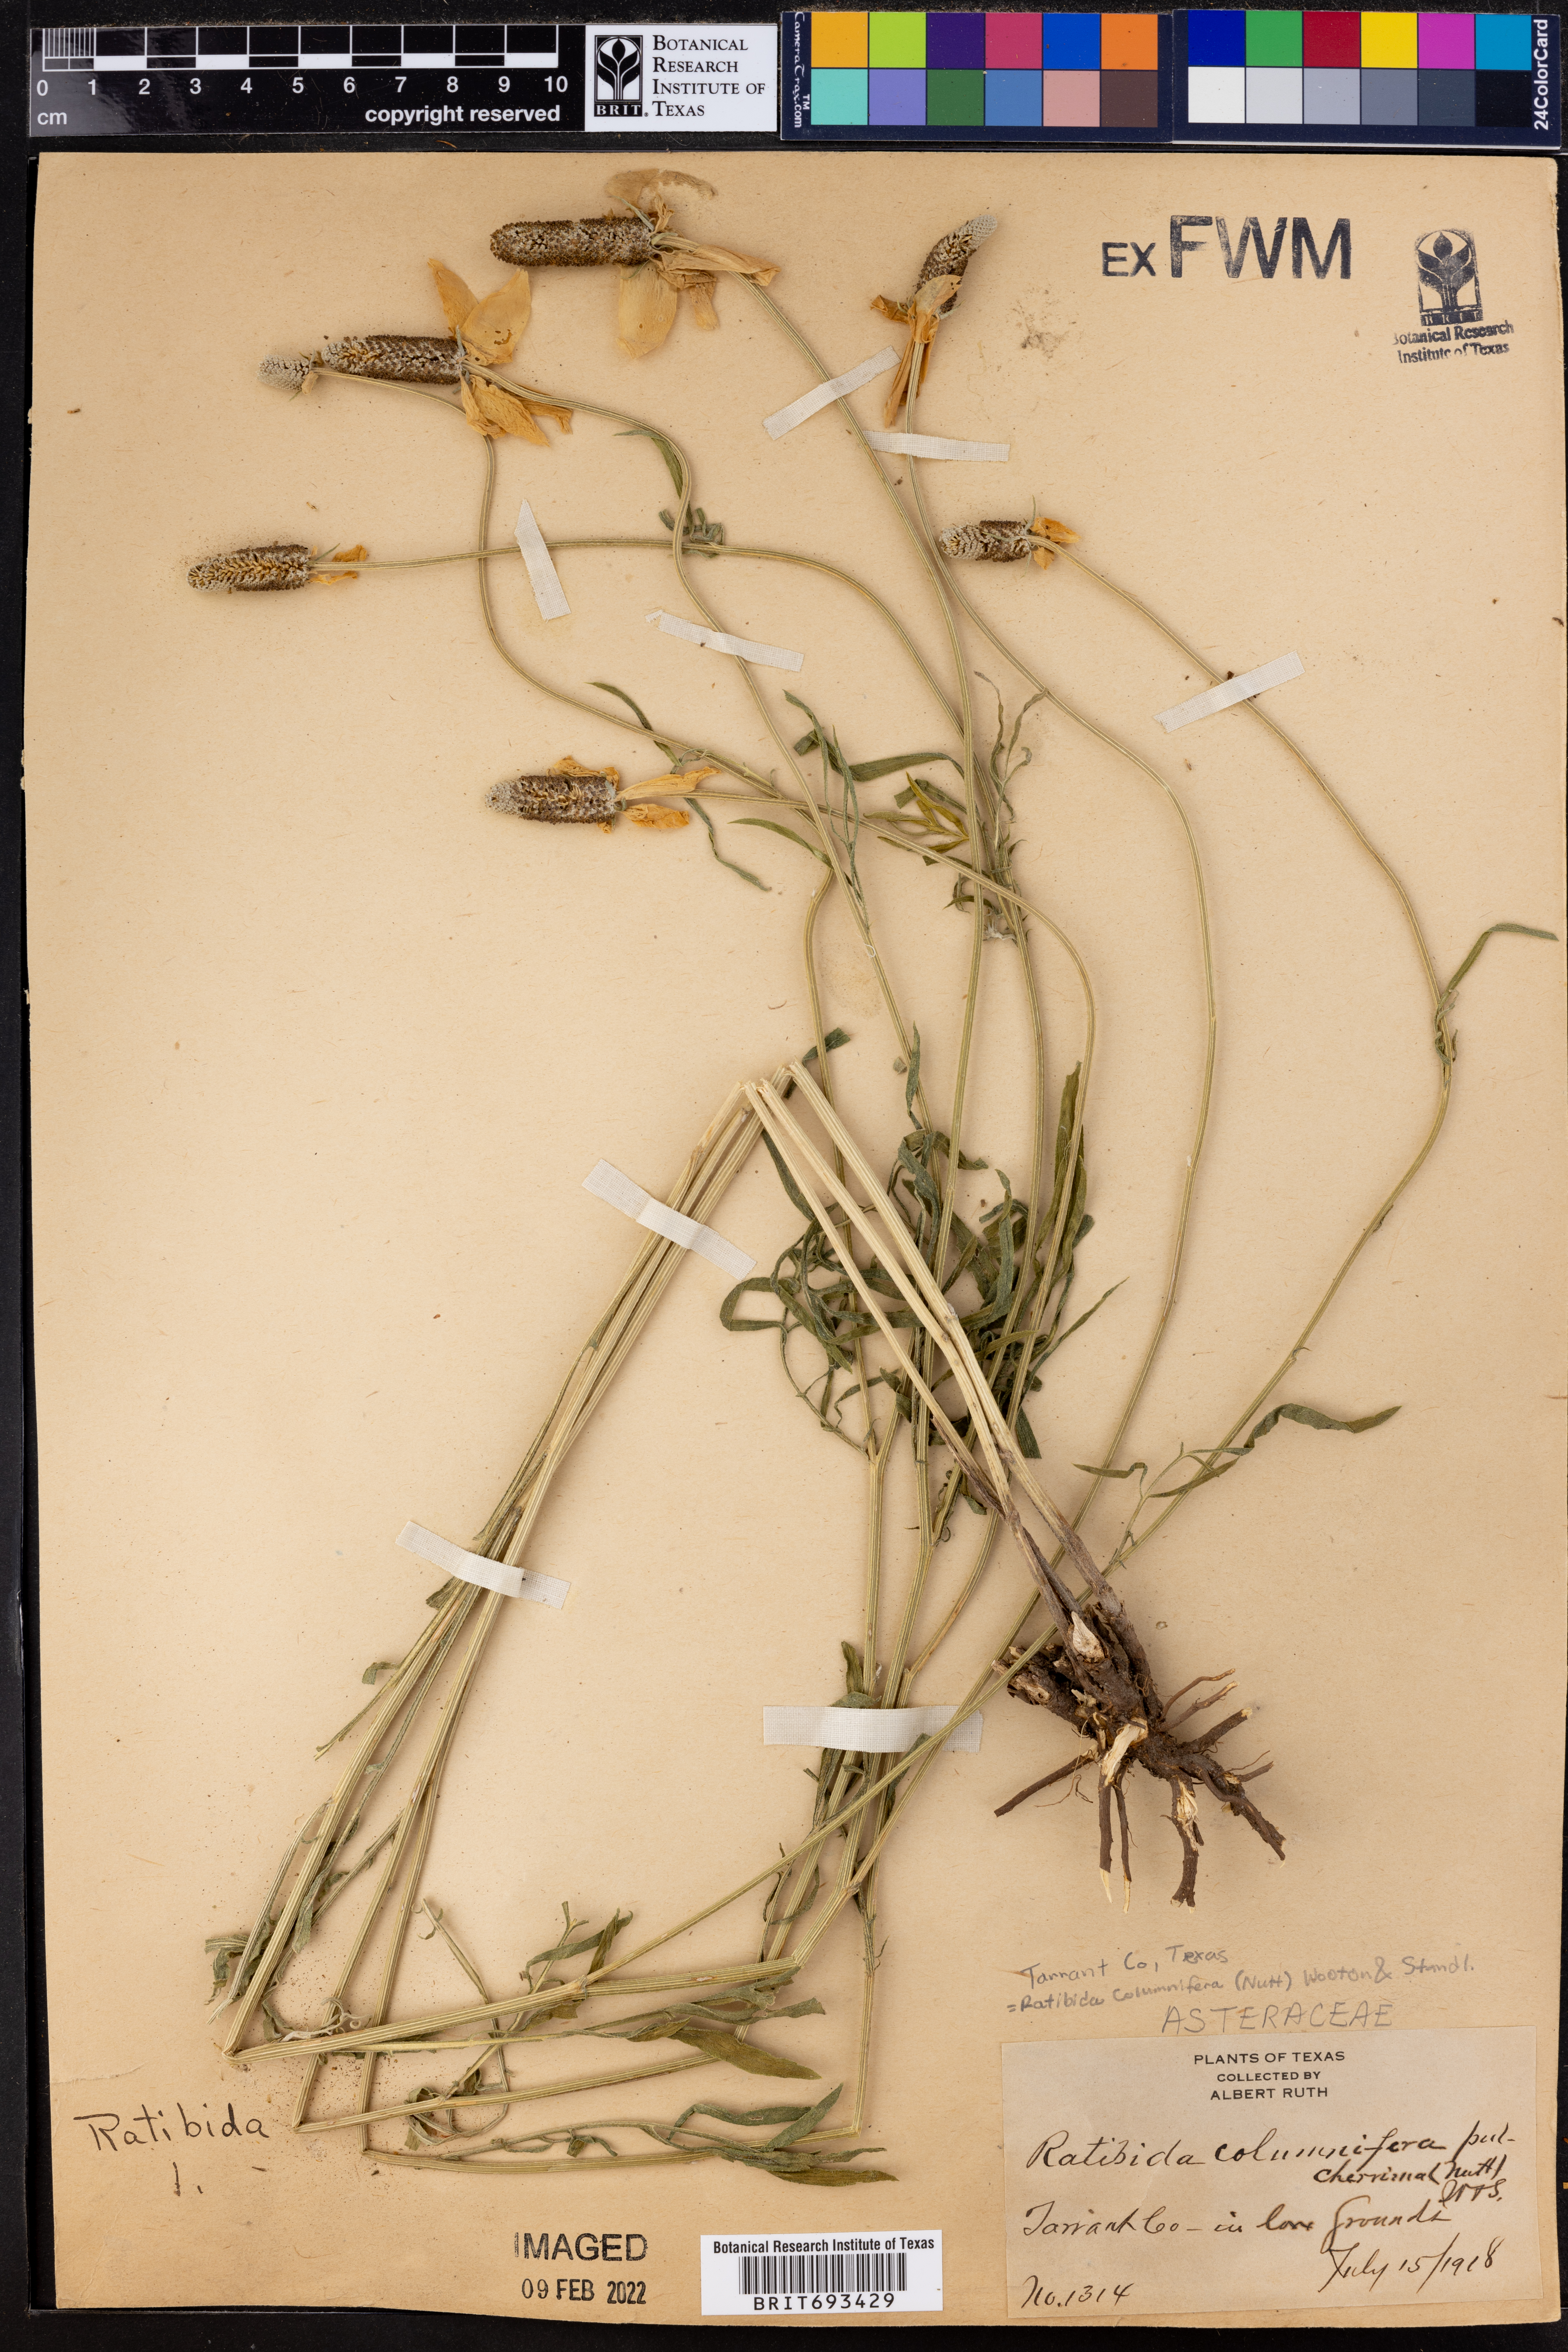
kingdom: Plantae
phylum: Tracheophyta
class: Magnoliopsida
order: Asterales
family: Asteraceae
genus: Ratibida
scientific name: Ratibida columnifera
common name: Prairie coneflower
